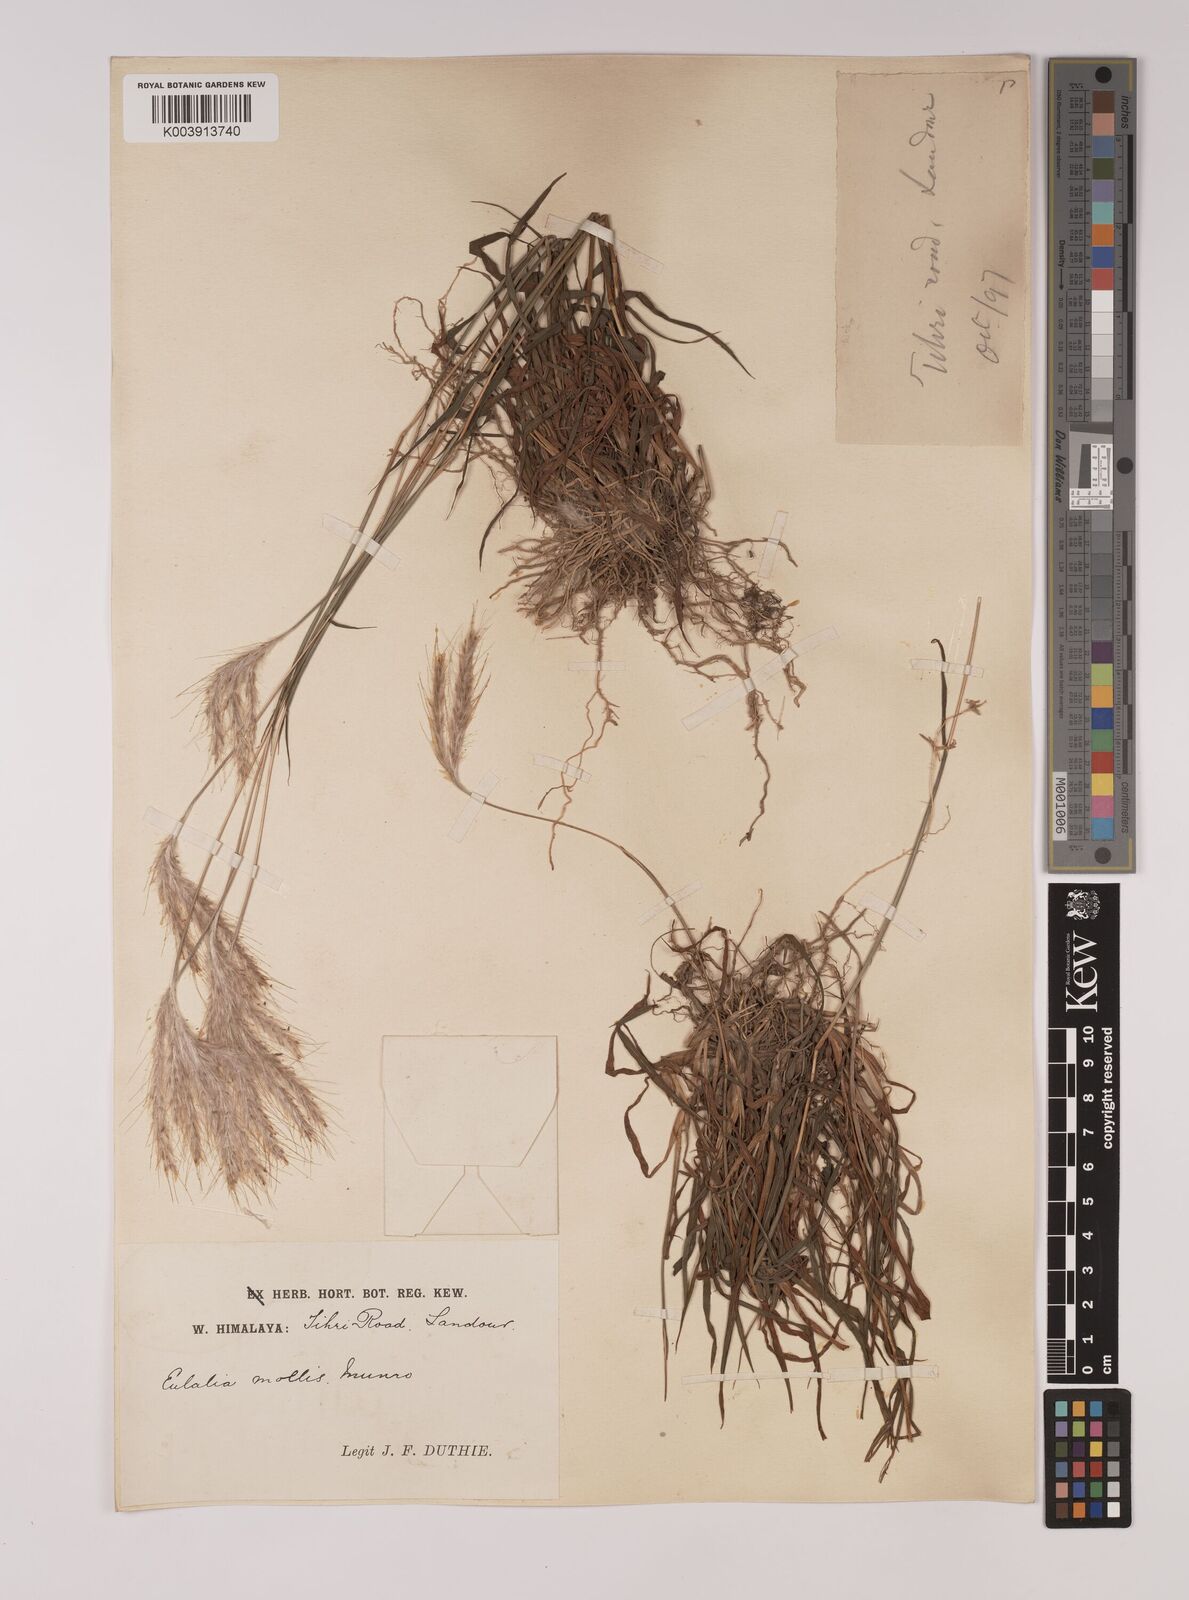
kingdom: Plantae
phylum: Tracheophyta
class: Liliopsida
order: Poales
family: Poaceae
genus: Eulalia
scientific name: Eulalia mollis
